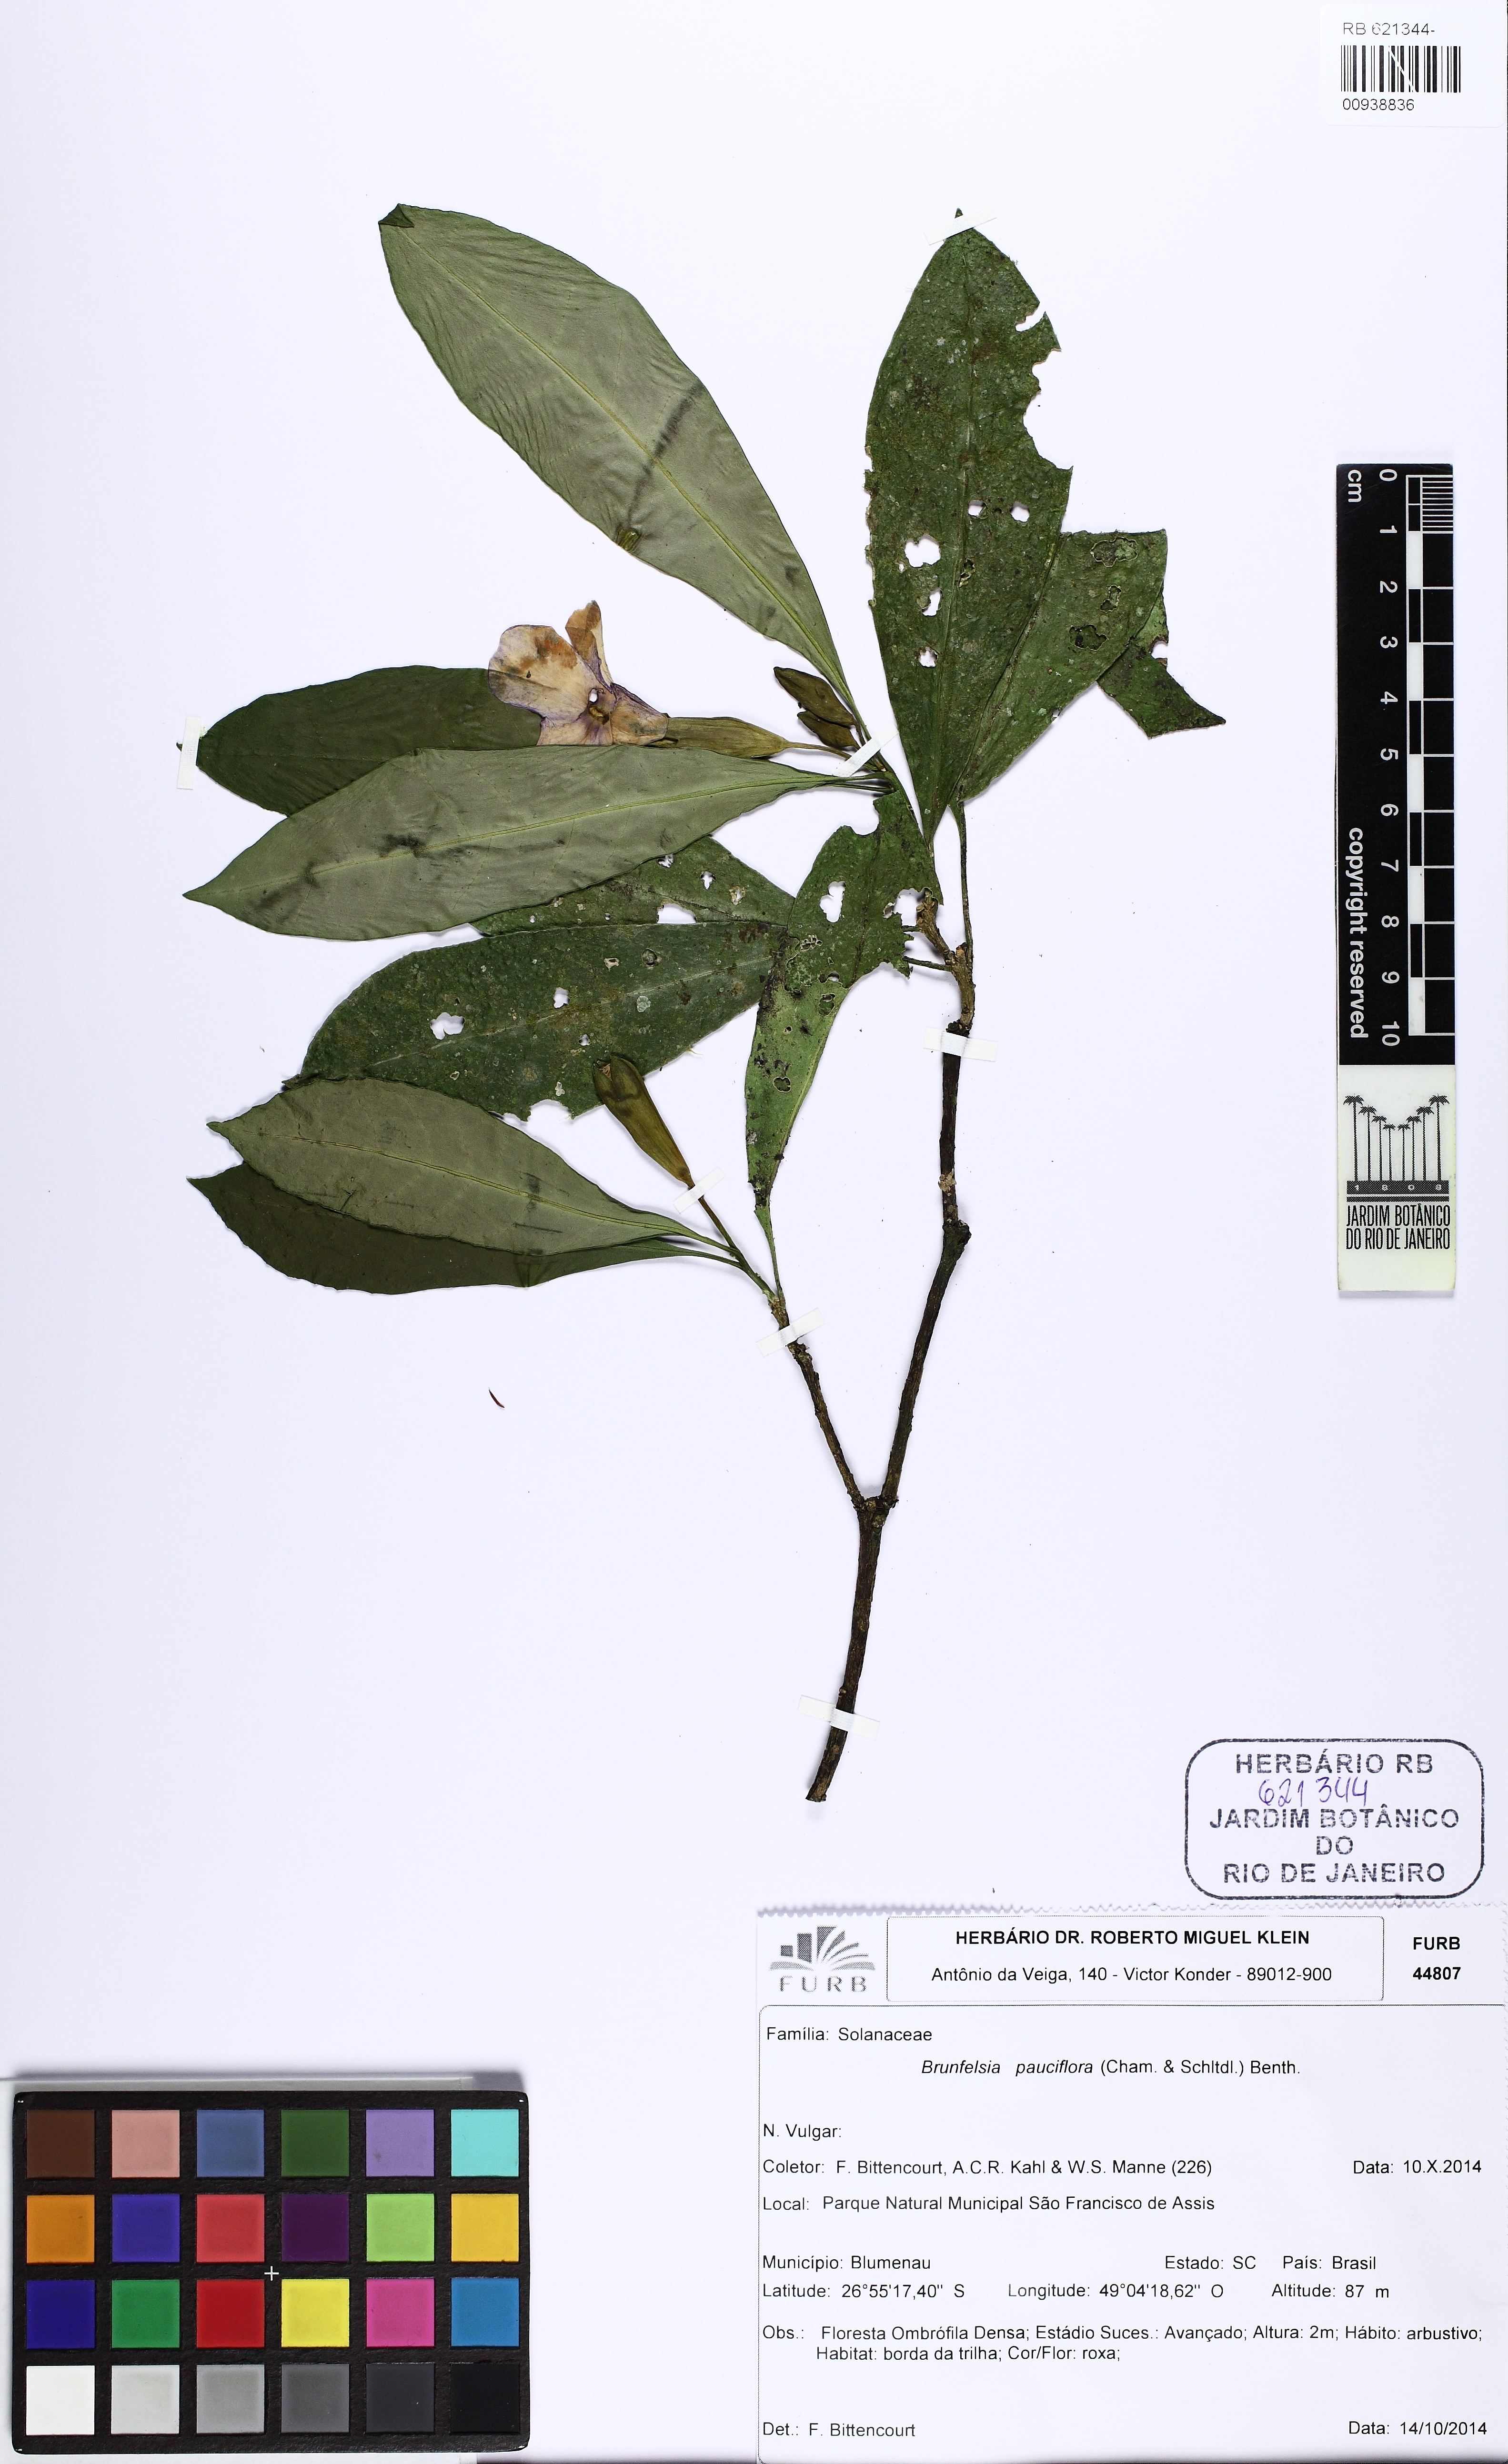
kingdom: Plantae
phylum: Tracheophyta
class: Magnoliopsida
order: Solanales
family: Solanaceae
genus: Brunfelsia
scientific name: Brunfelsia pauciflora
